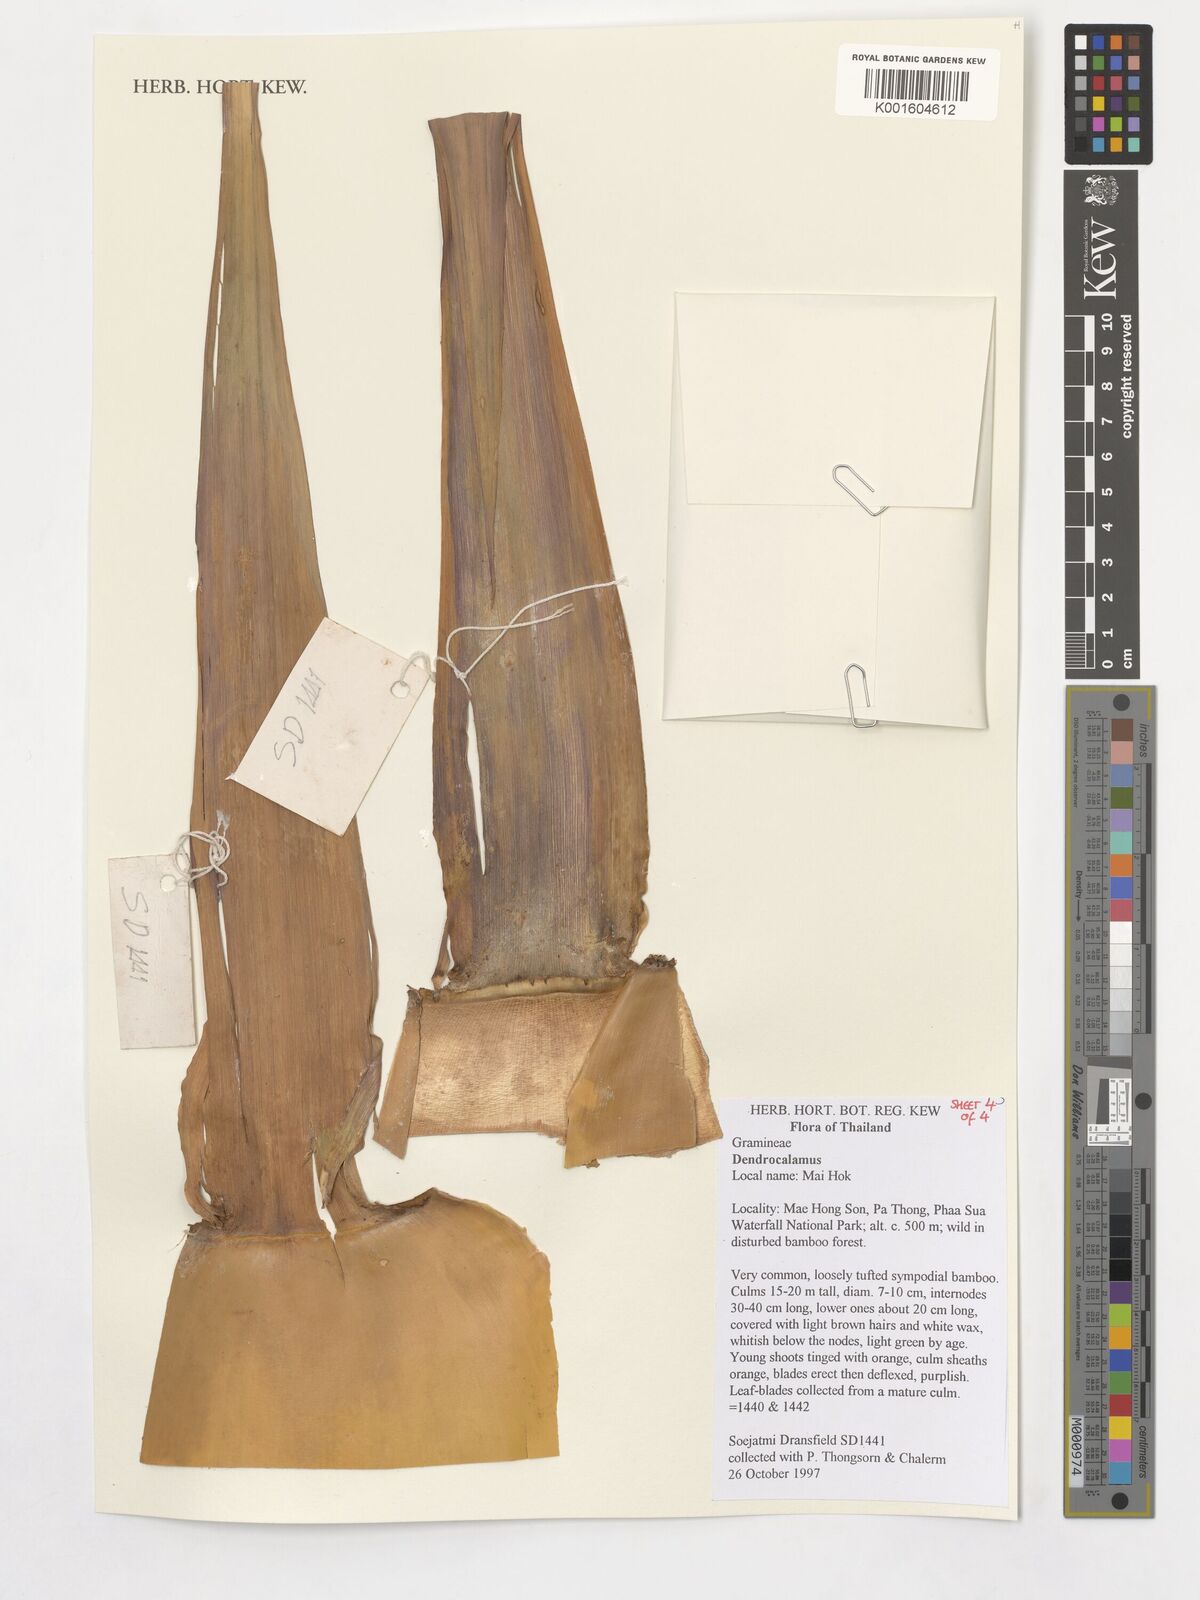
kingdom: Plantae
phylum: Tracheophyta
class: Liliopsida
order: Poales
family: Poaceae
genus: Dendrocalamus
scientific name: Dendrocalamus
